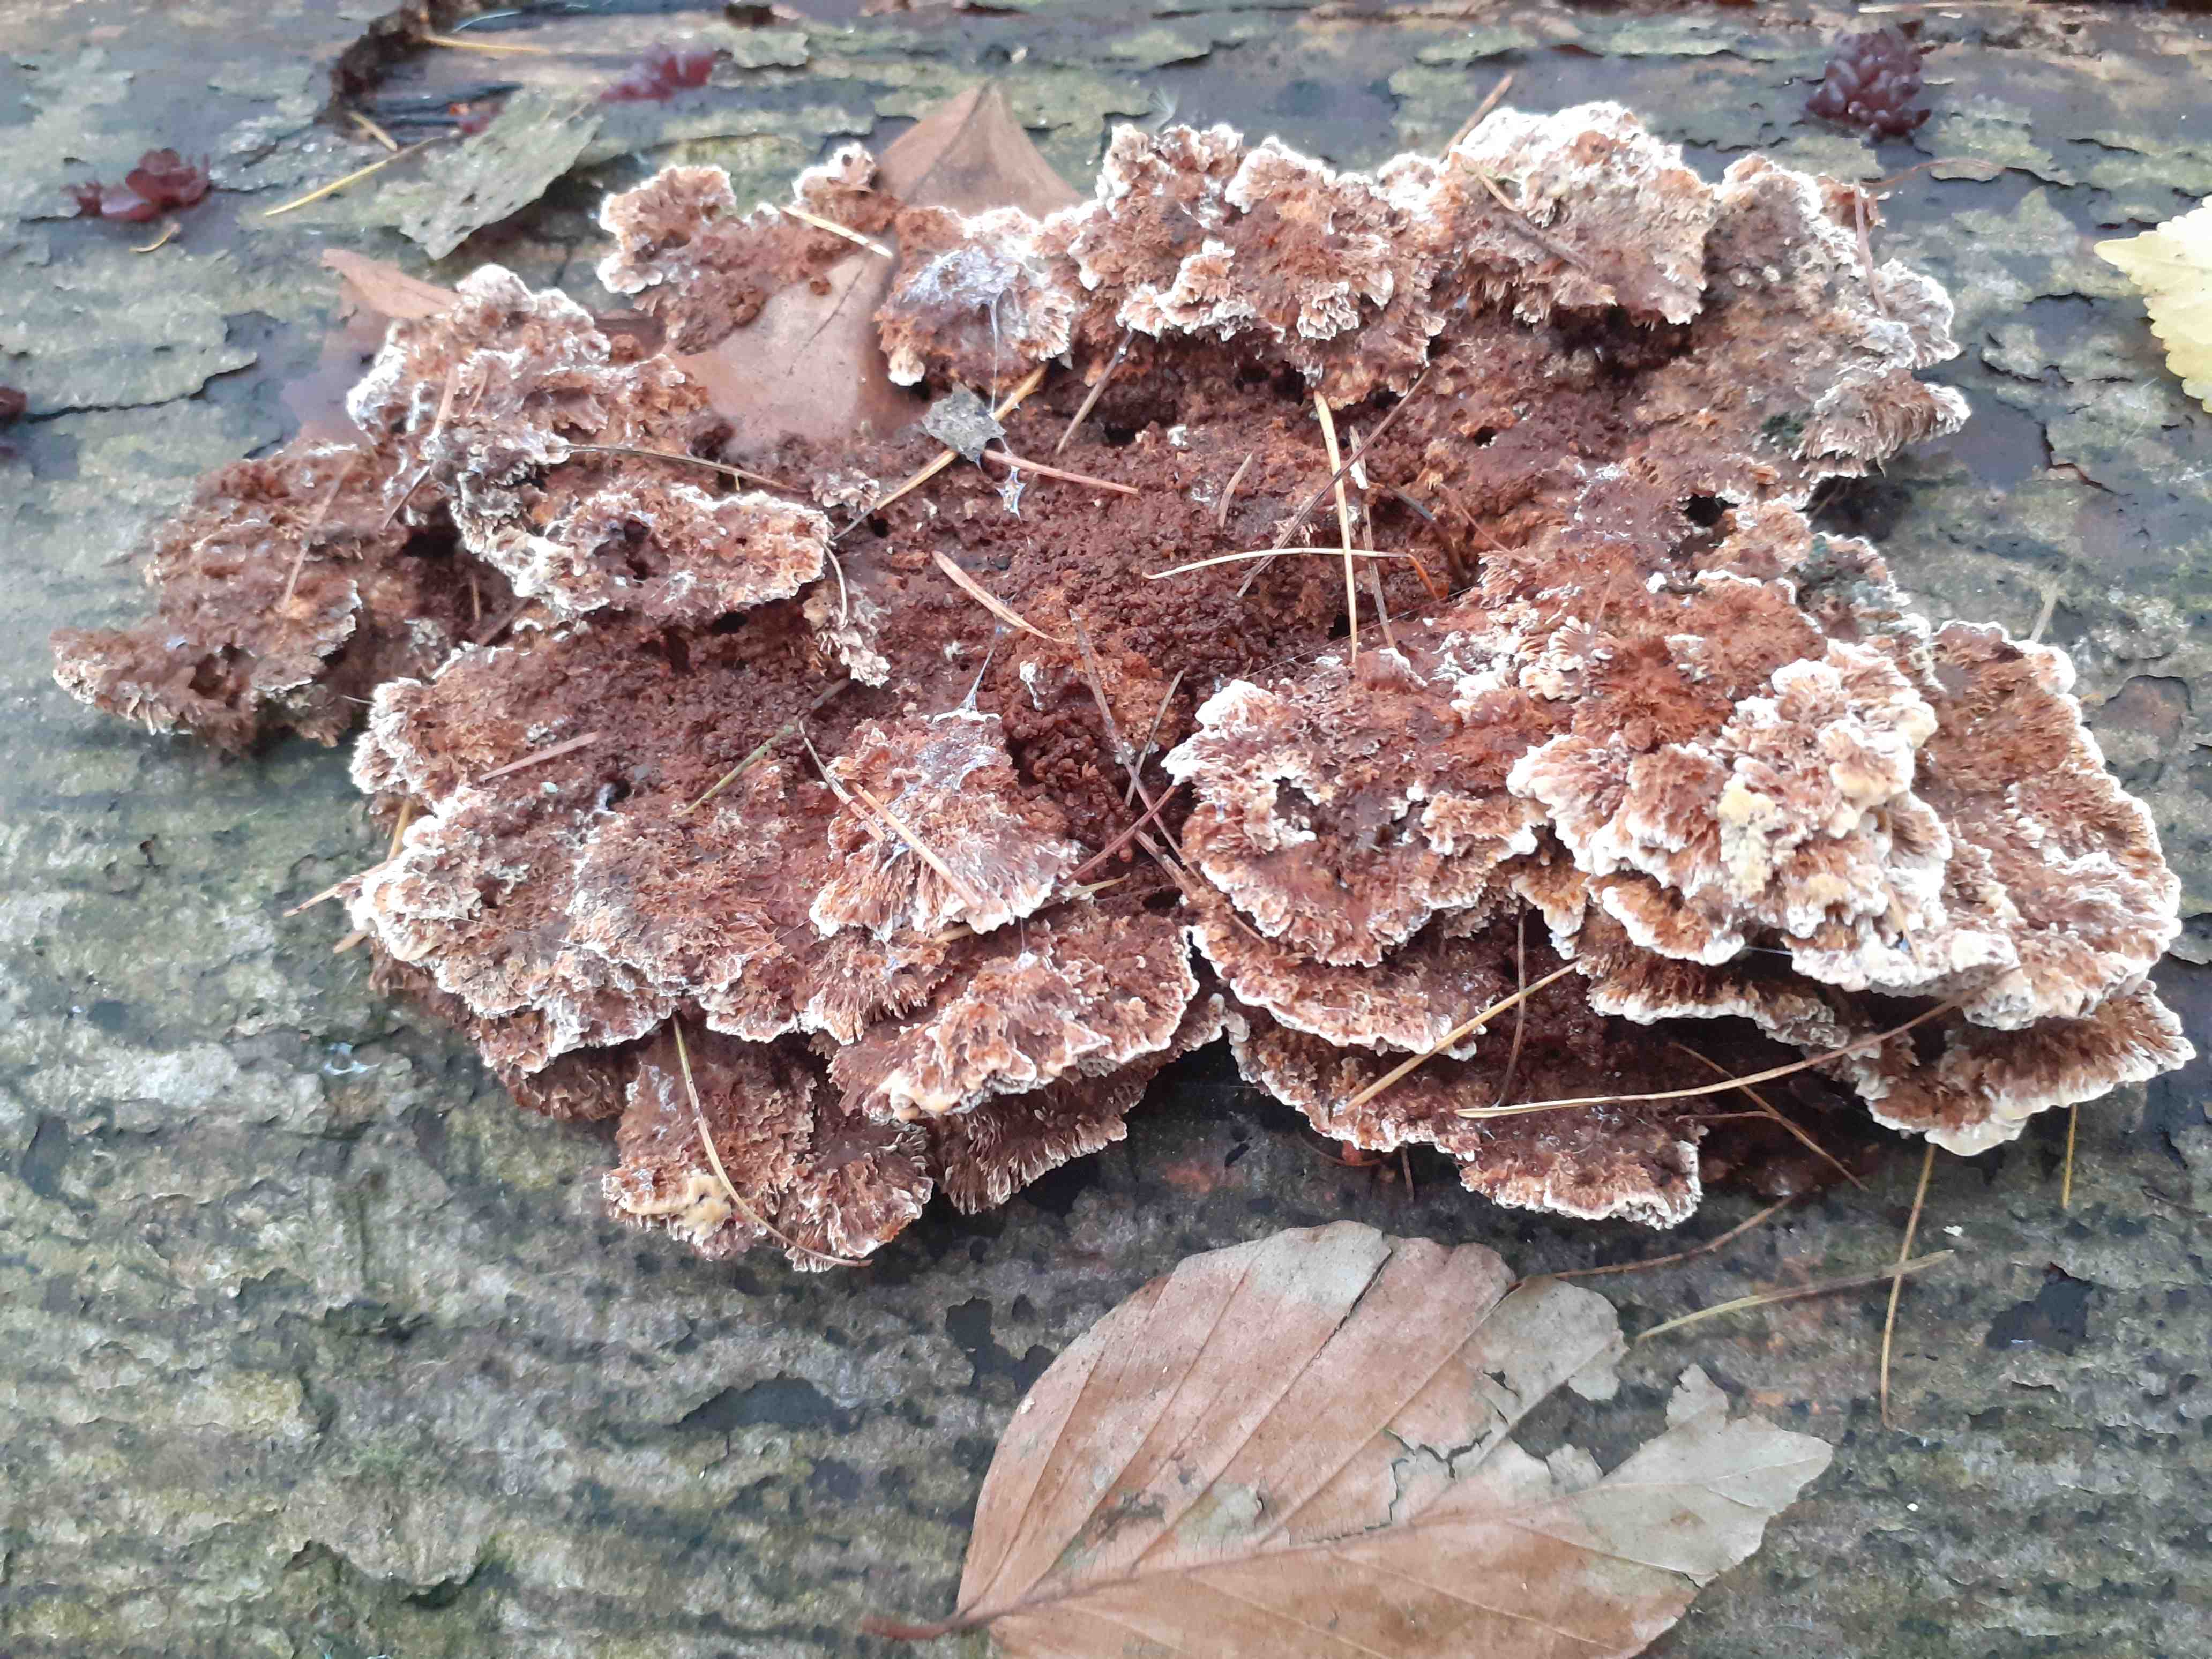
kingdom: Fungi
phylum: Basidiomycota
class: Agaricomycetes
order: Hymenochaetales
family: Hymenochaetaceae
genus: Mensularia
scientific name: Mensularia nodulosa
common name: bøge-spejlporesvamp
